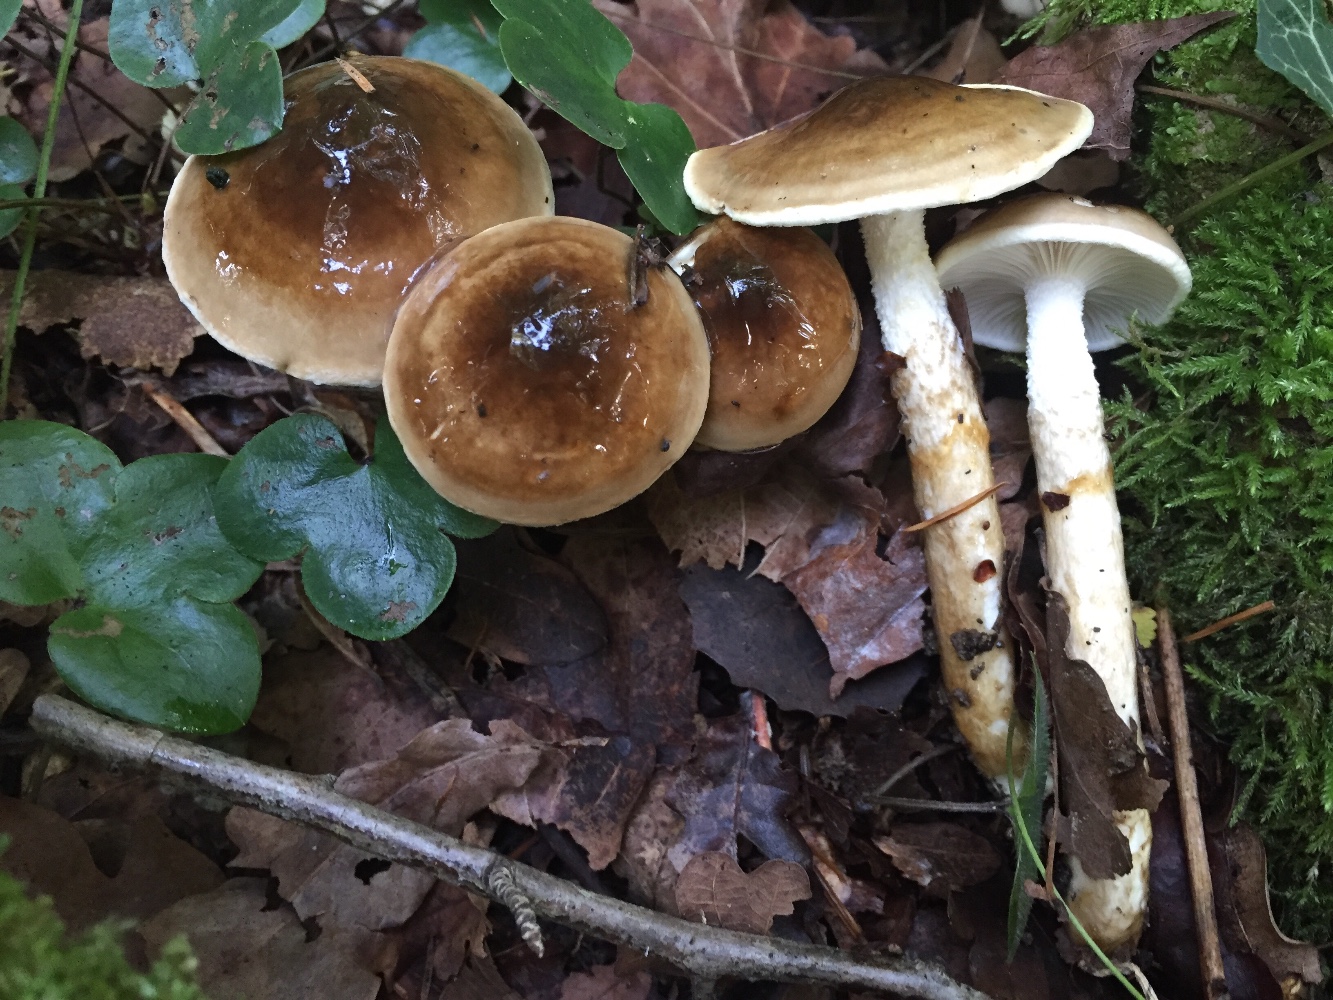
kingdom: Fungi
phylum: Basidiomycota
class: Agaricomycetes
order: Agaricales
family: Hygrophoraceae
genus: Hygrophorus
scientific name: Hygrophorus glutinifer
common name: tvefarvet sneglehat
